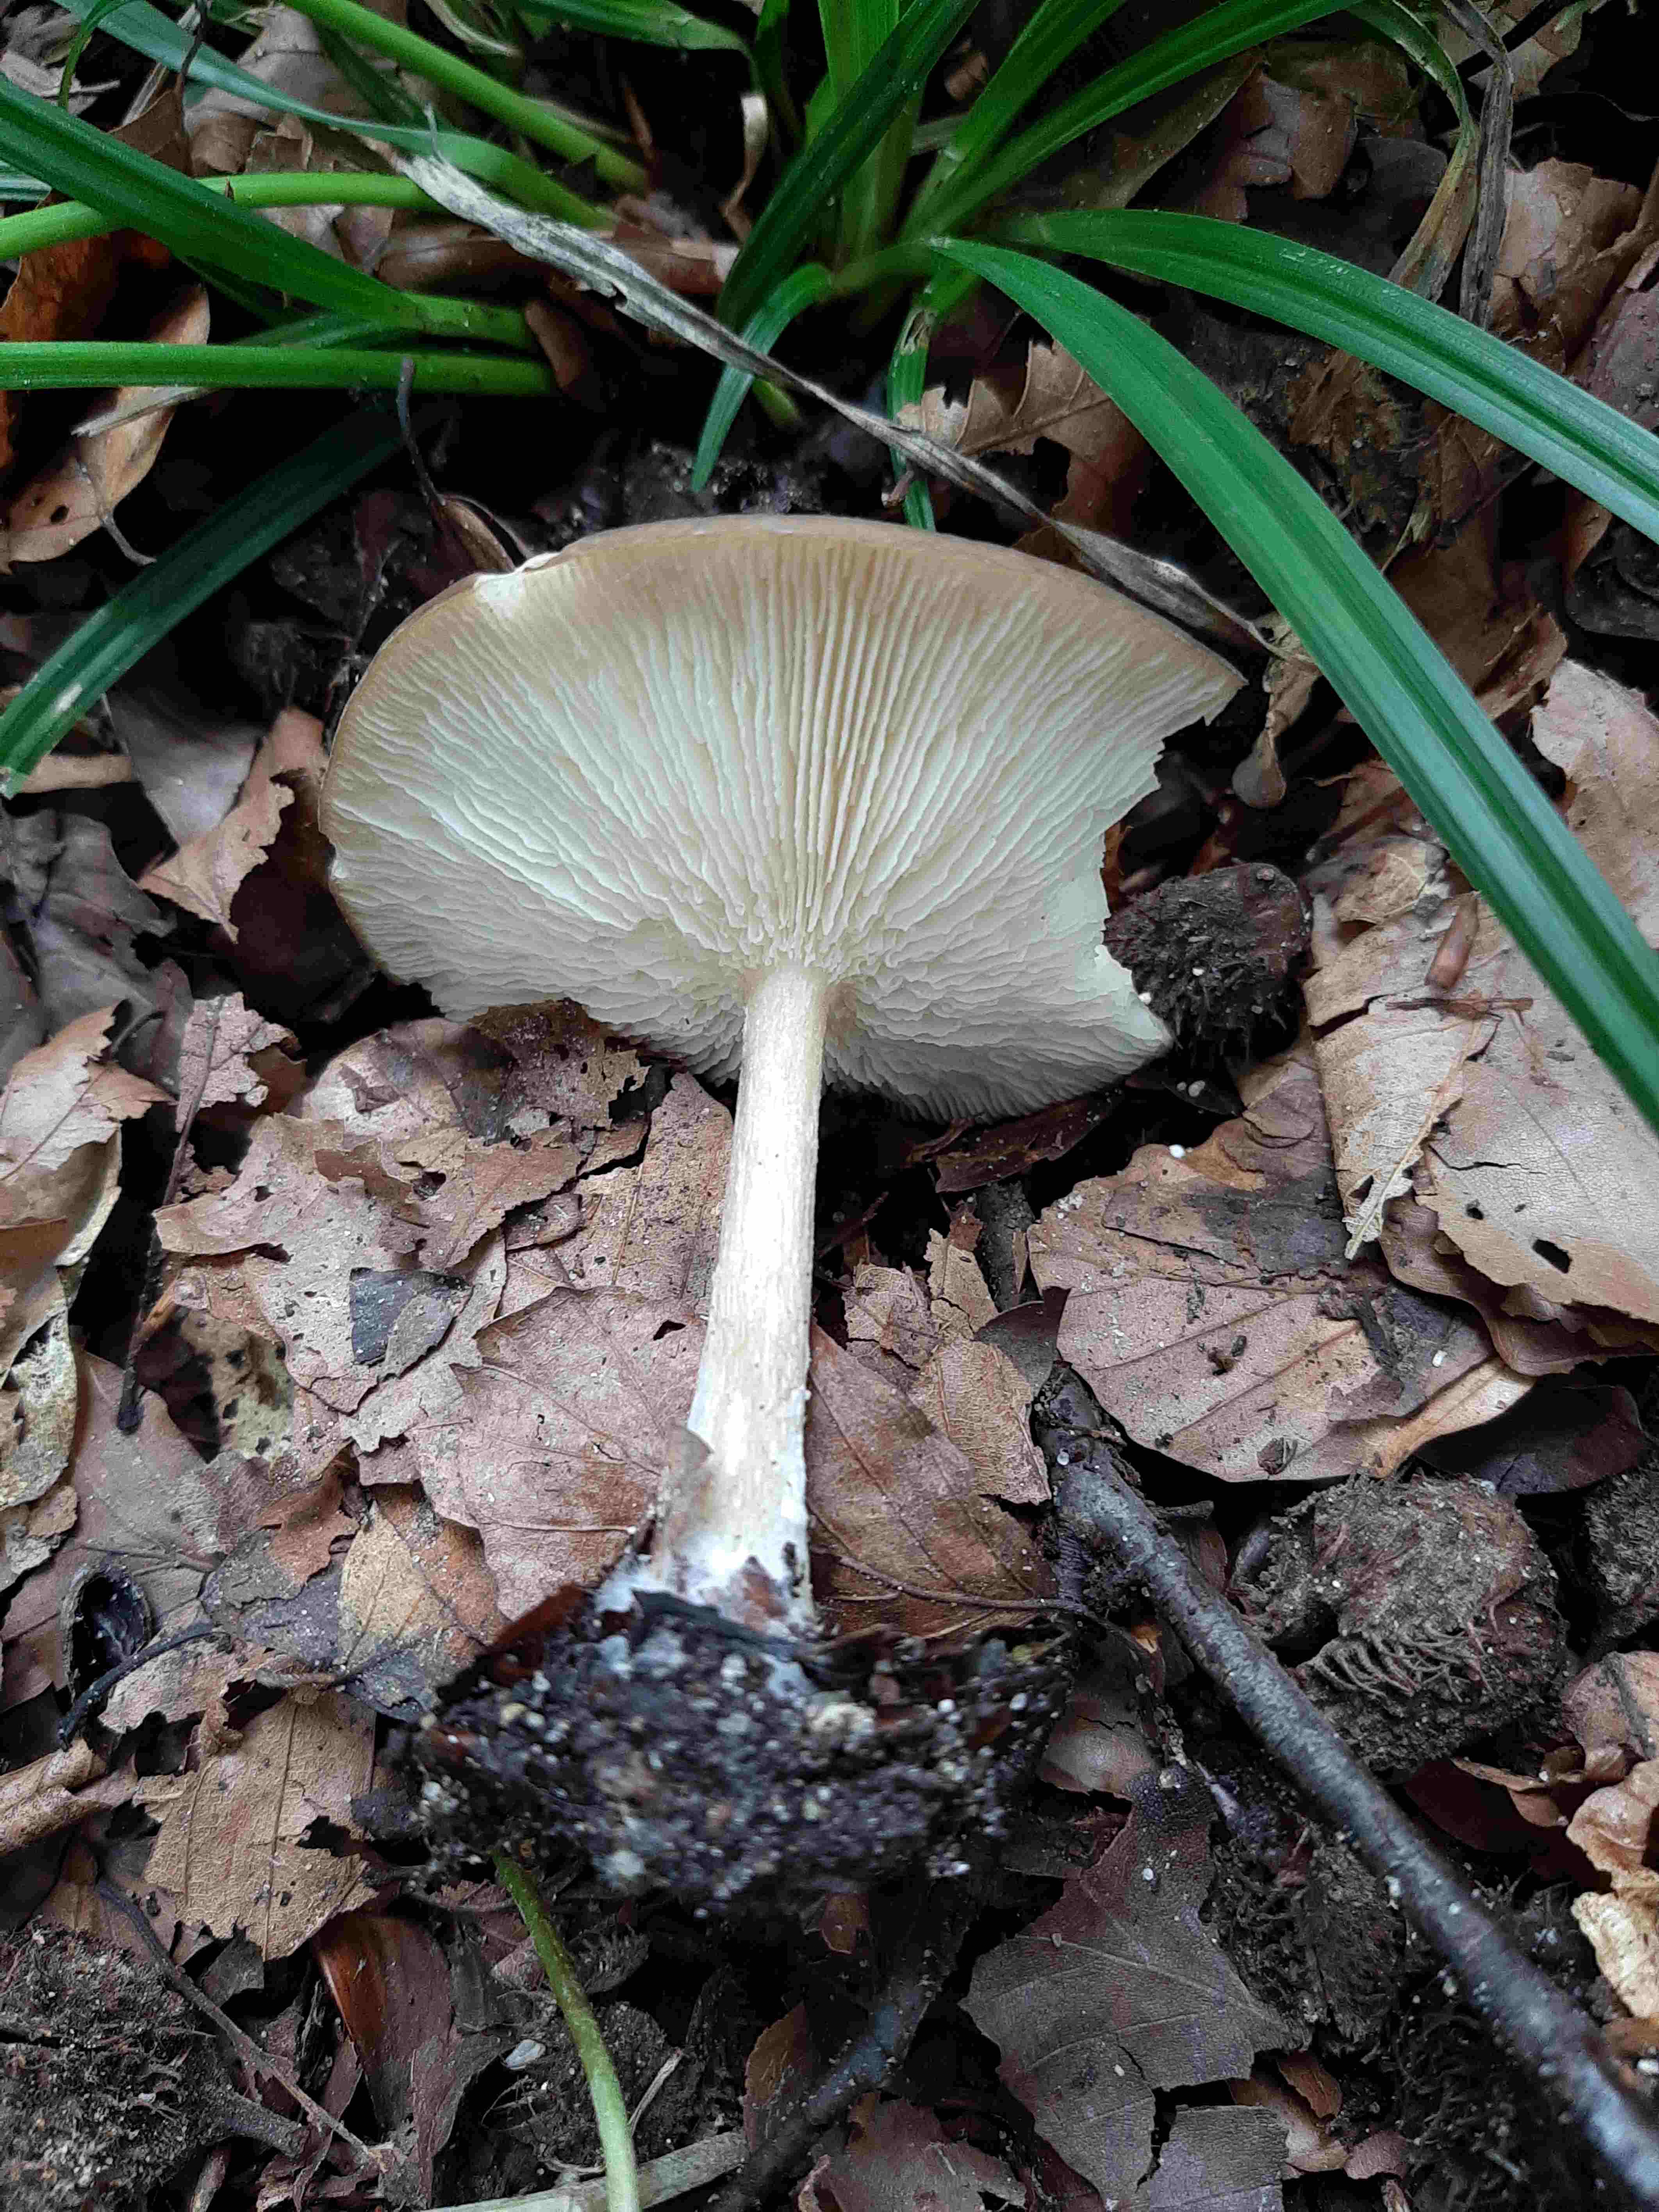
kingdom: Fungi
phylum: Basidiomycota
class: Agaricomycetes
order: Agaricales
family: Tricholomataceae
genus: Melanoleuca
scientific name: Melanoleuca
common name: munkehat
